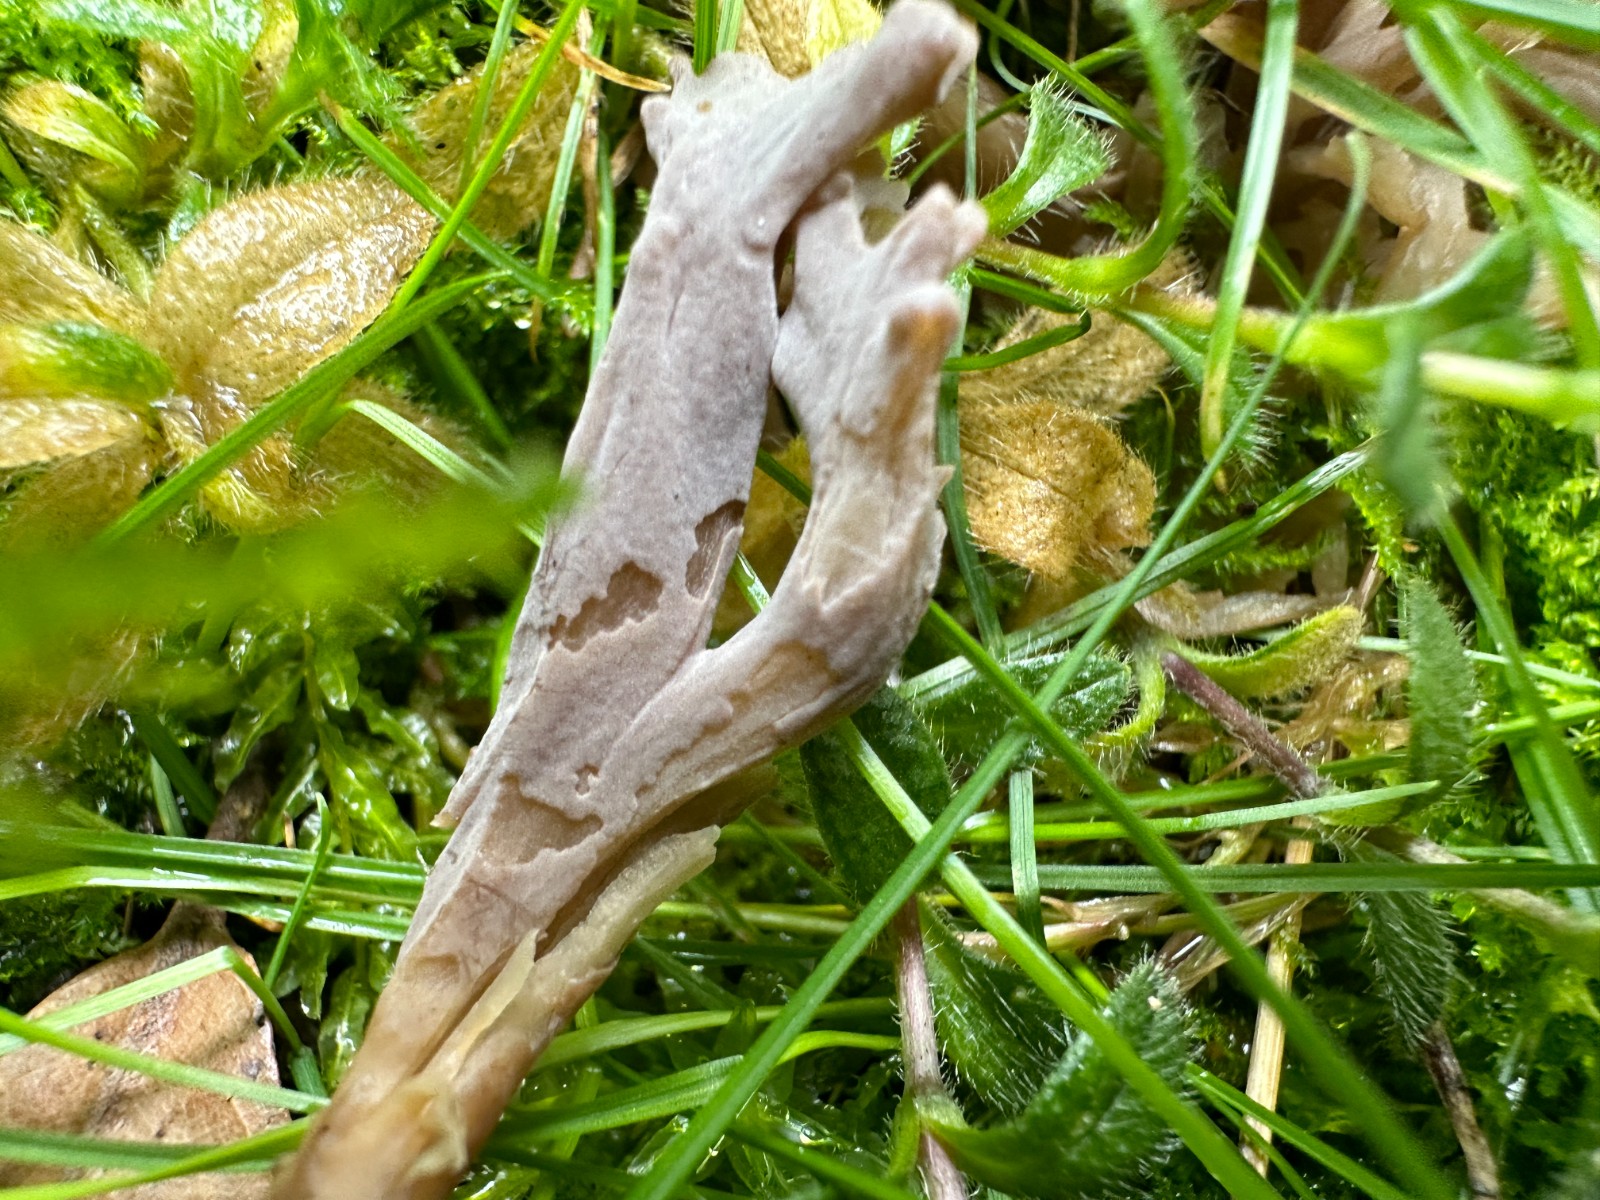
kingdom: Fungi
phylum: Basidiomycota
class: Agaricomycetes
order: Cantharellales
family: Hydnaceae
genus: Clavulina
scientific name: Clavulina
